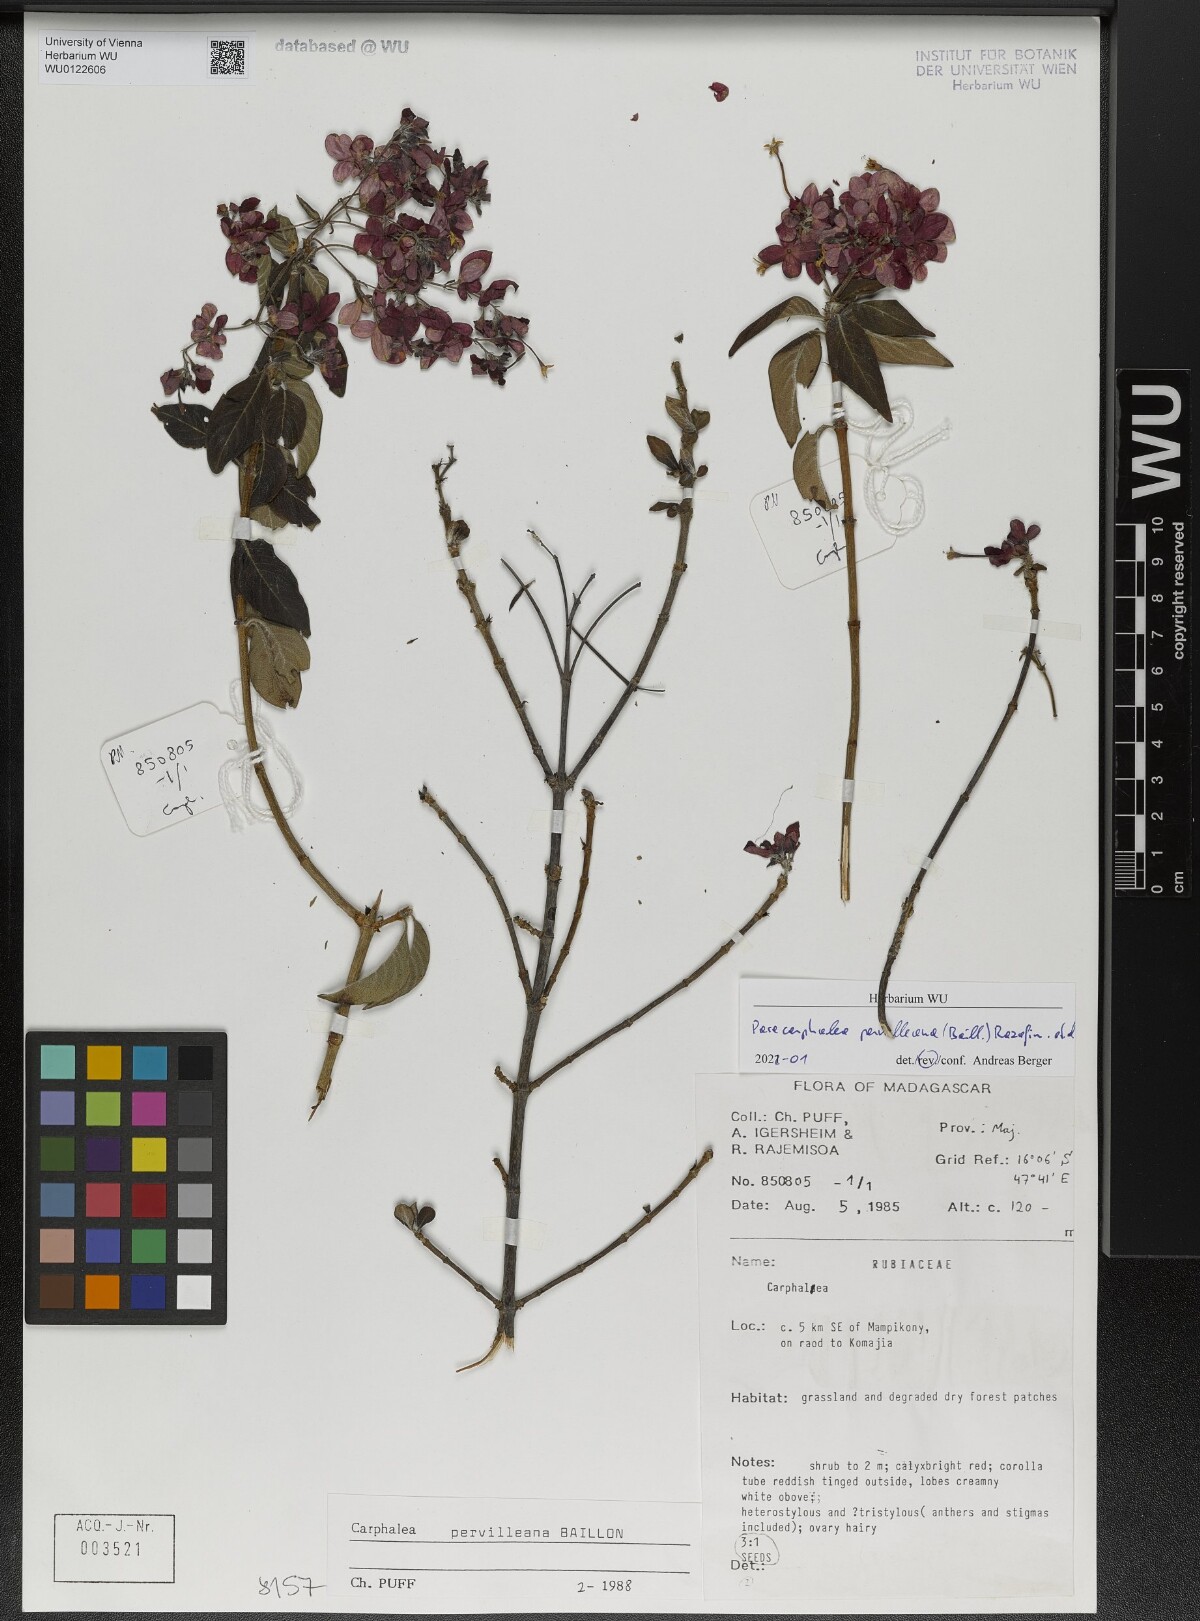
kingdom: Plantae
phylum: Tracheophyta
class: Magnoliopsida
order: Gentianales
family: Rubiaceae
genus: Paracarphalea
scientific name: Paracarphalea pervilleana
